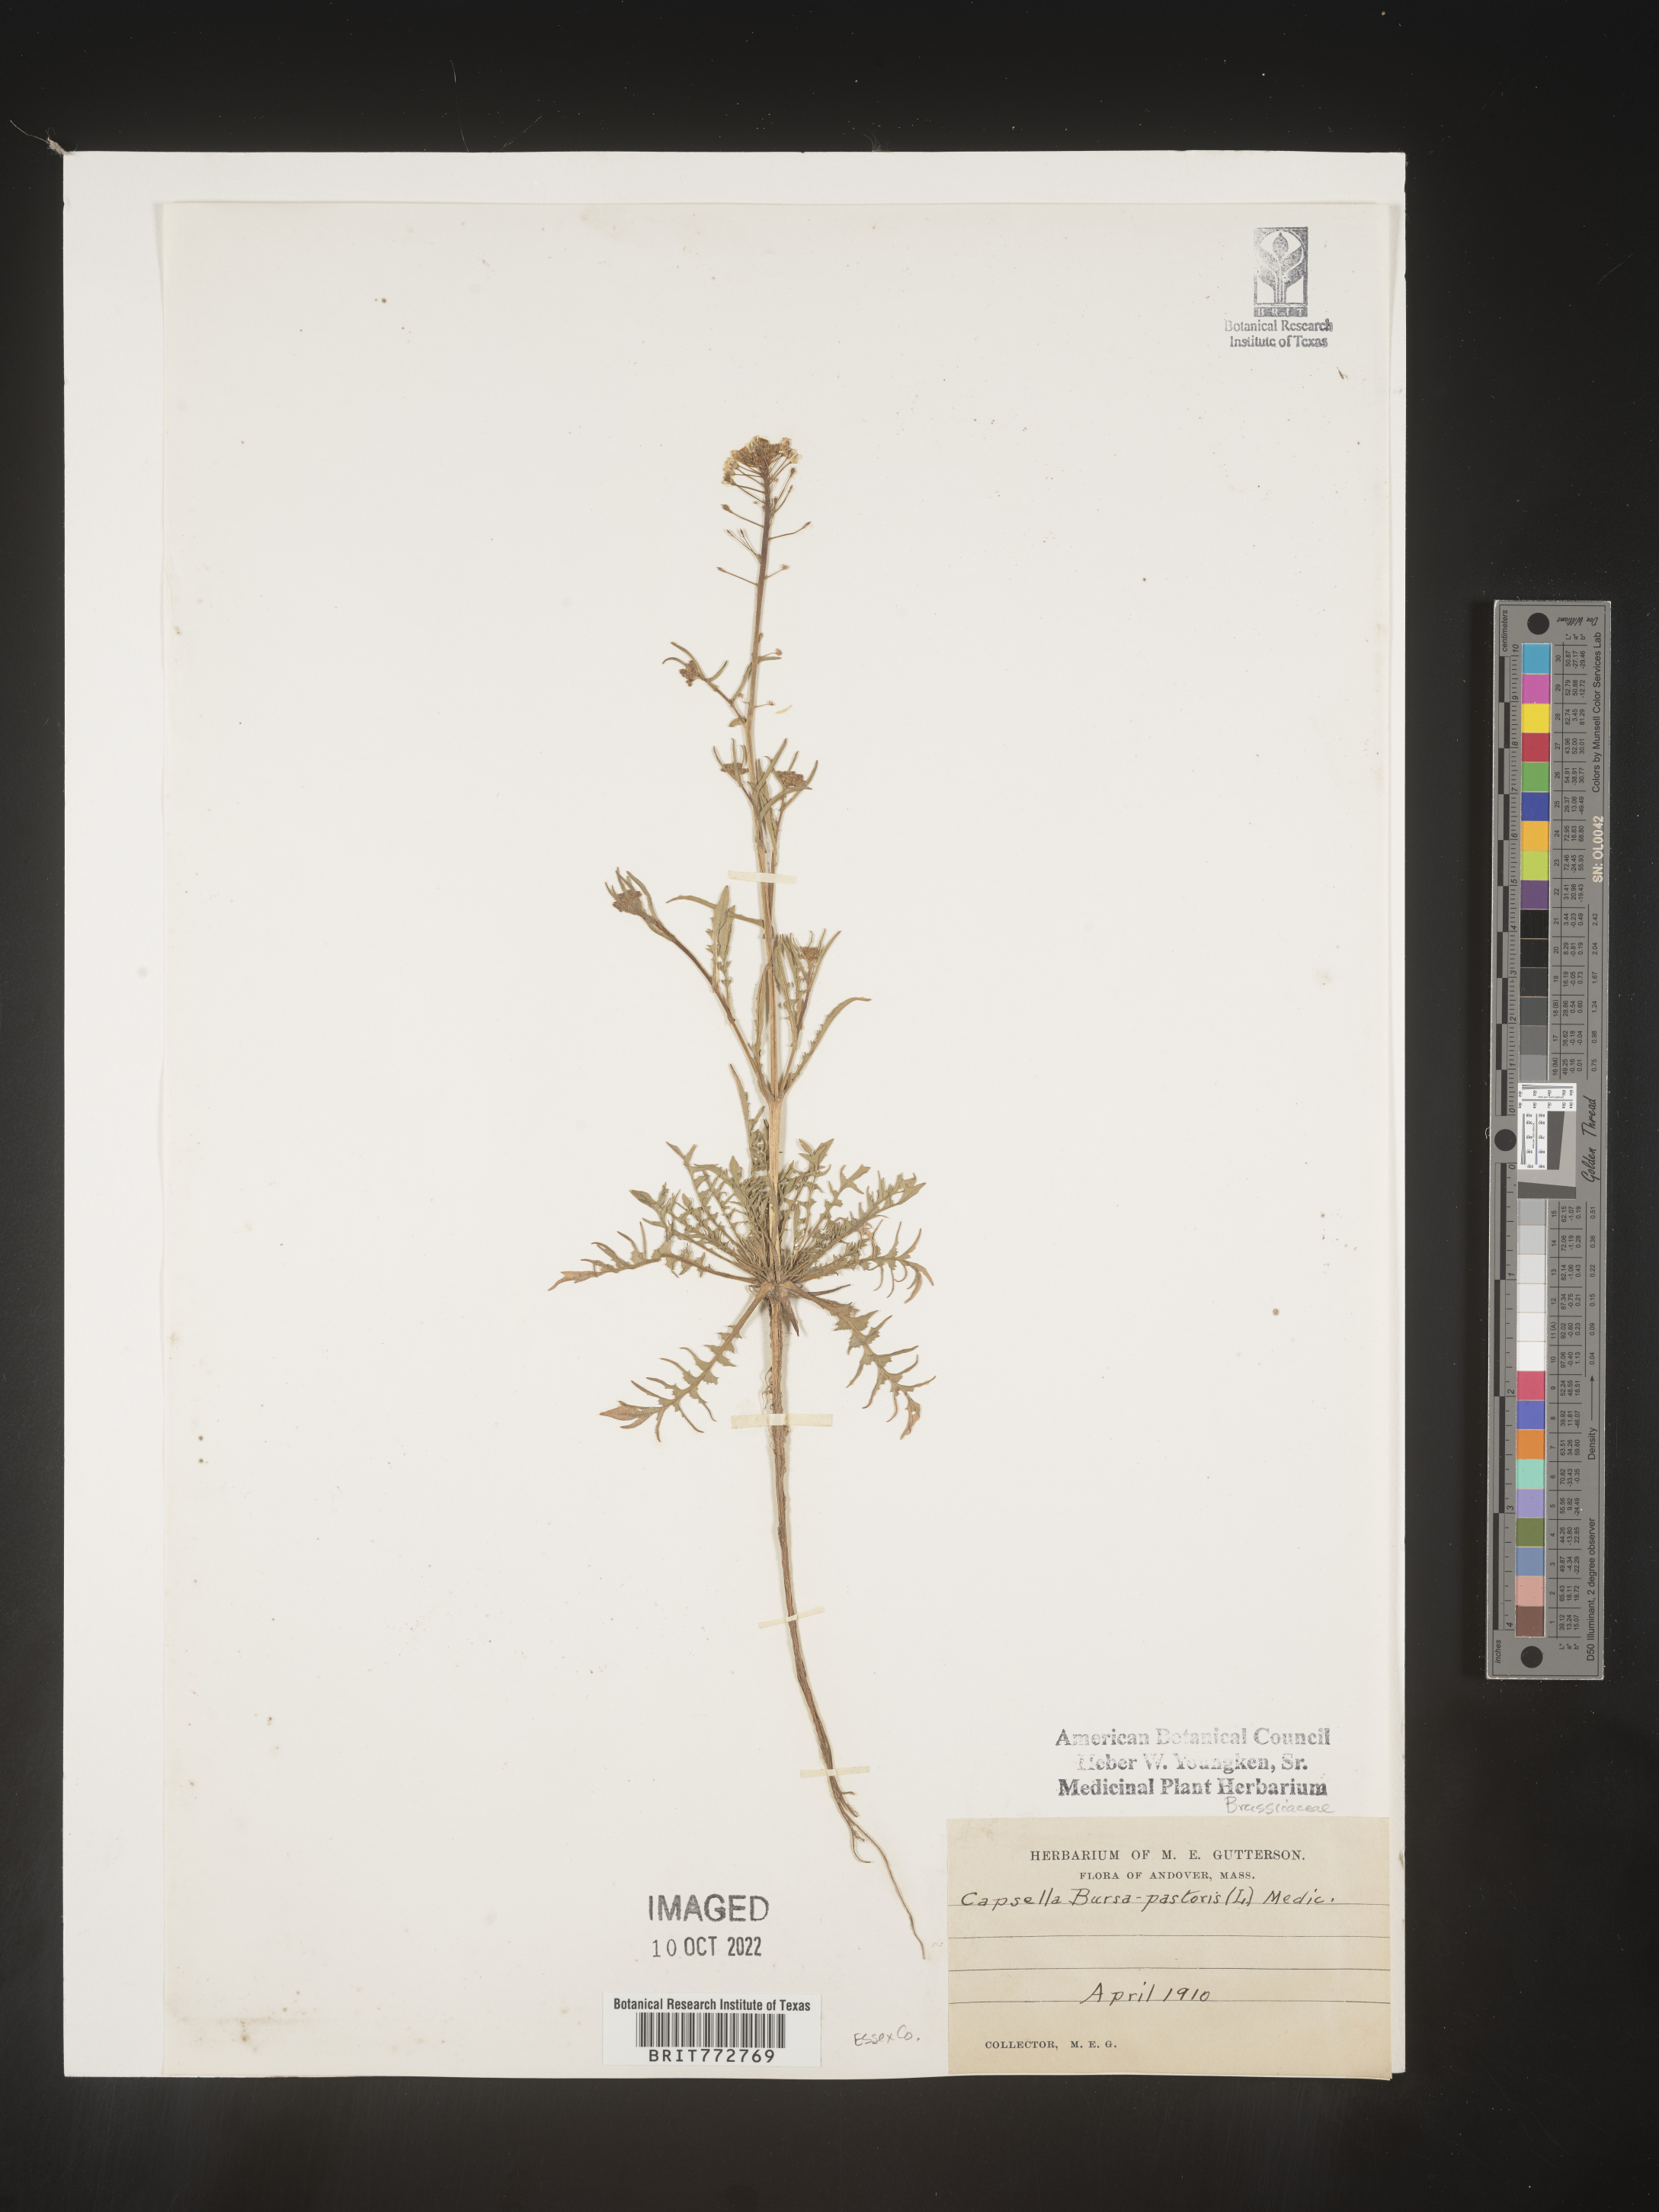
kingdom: Plantae
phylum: Tracheophyta
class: Magnoliopsida
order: Brassicales
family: Brassicaceae
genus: Capsella
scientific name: Capsella bursa-pastoris
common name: Shepherd's purse
